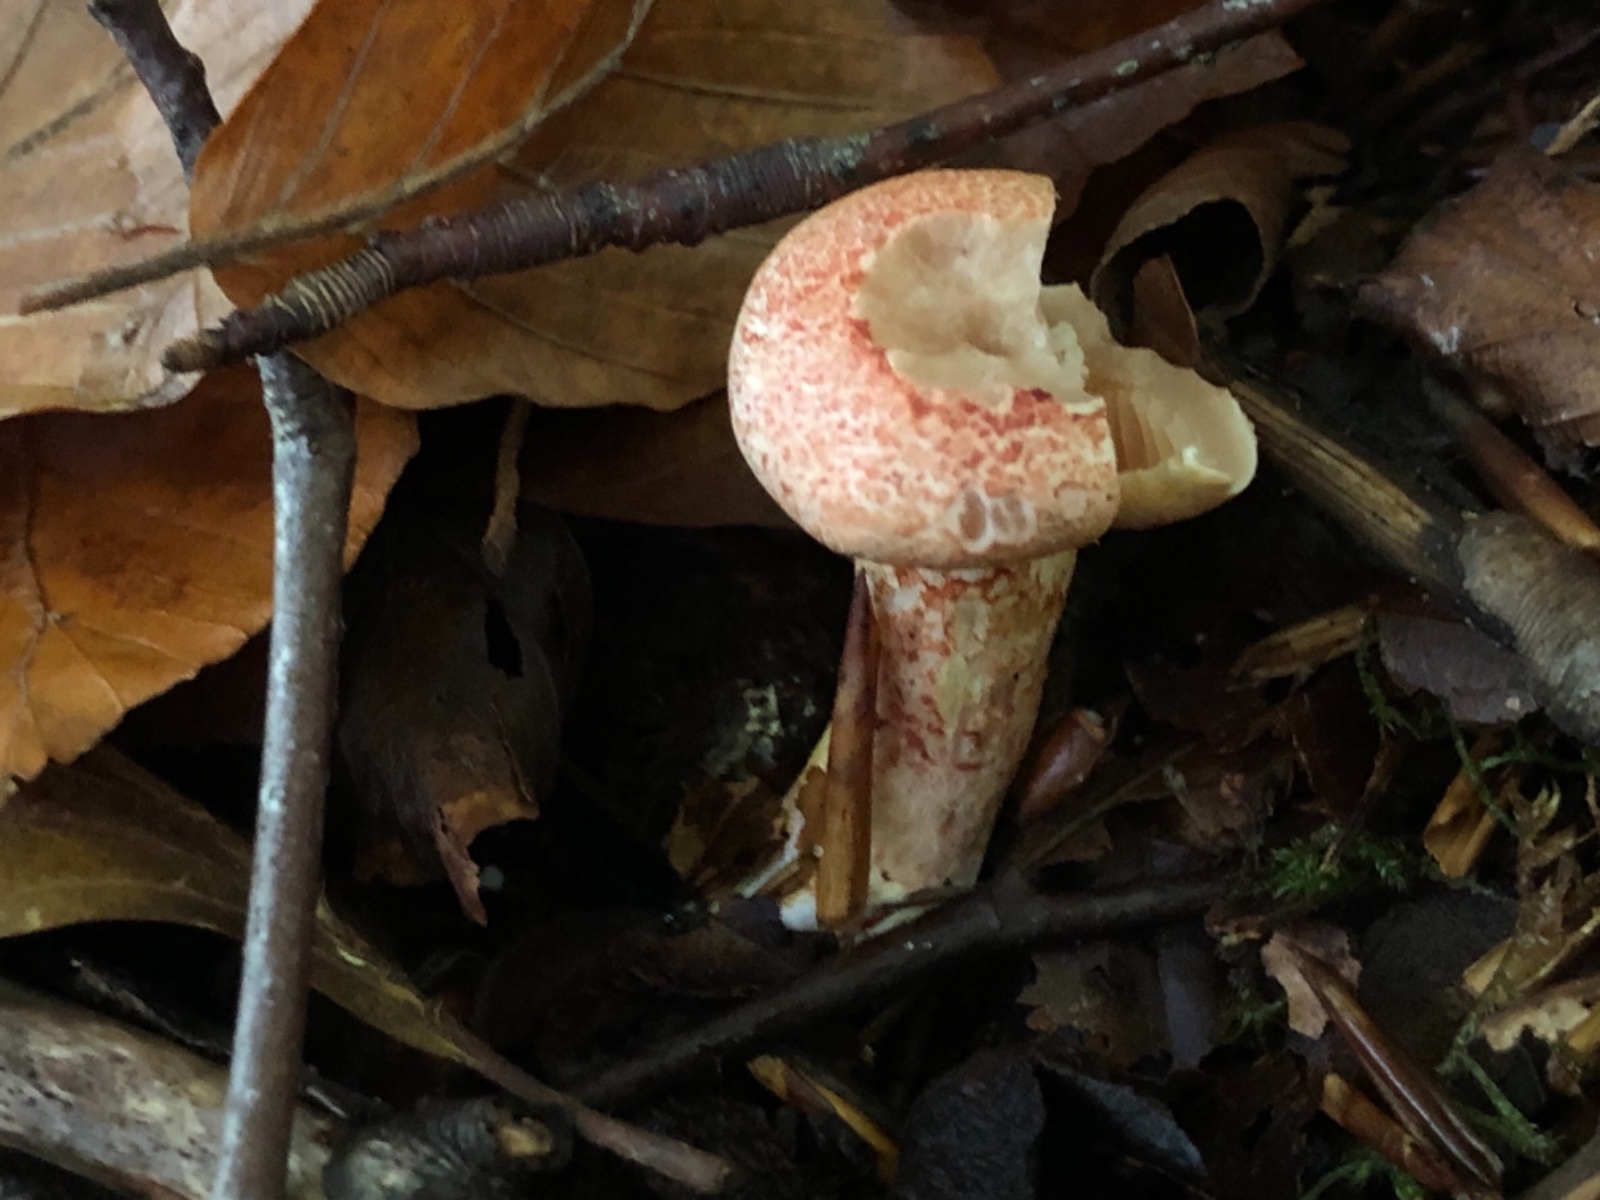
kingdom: Fungi
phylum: Basidiomycota
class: Agaricomycetes
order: Agaricales
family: Cortinariaceae
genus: Cortinarius
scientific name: Cortinarius bolaris
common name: cinnoberskællet slørhat
